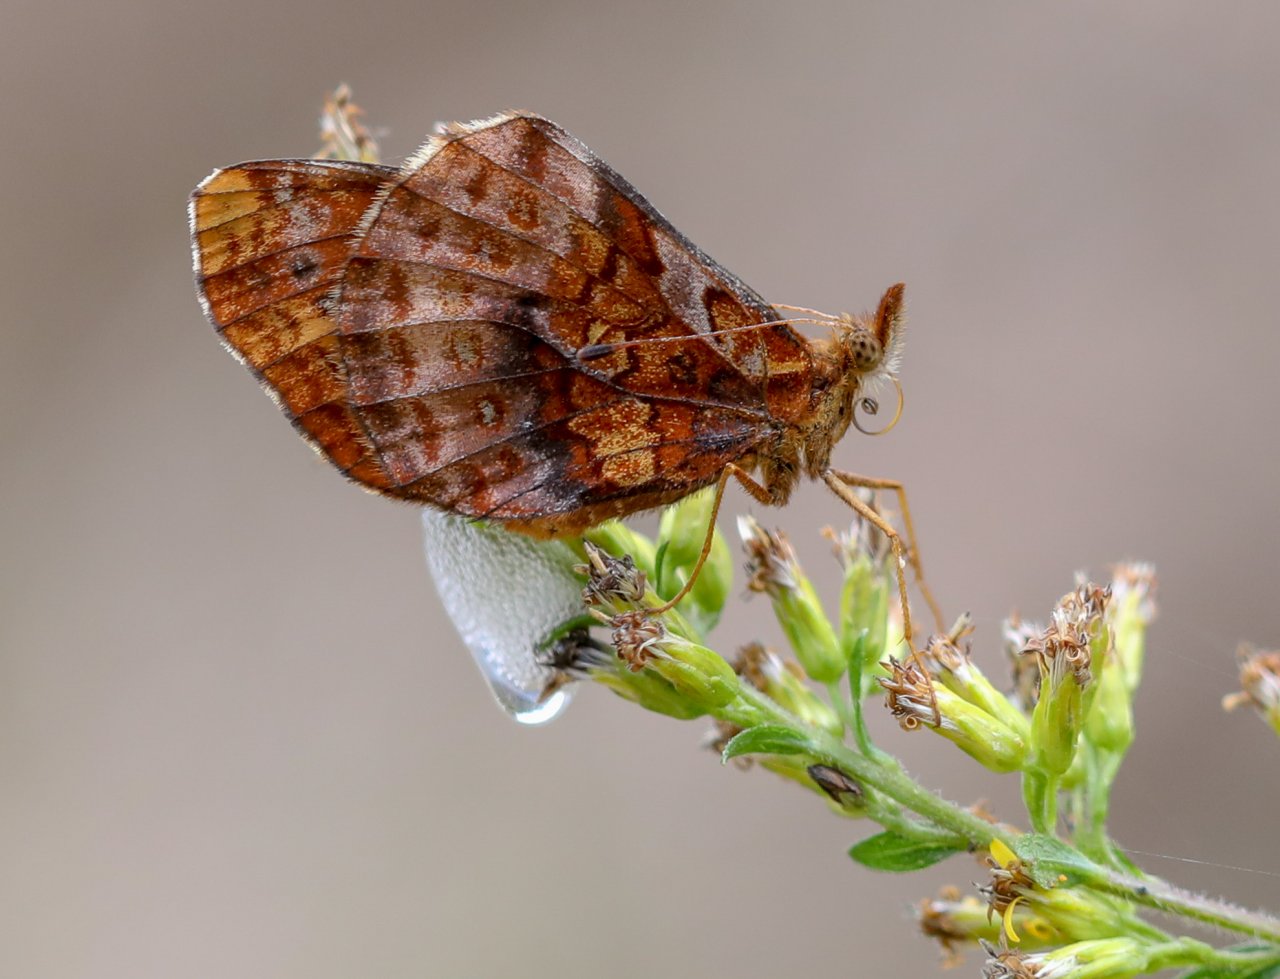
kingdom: Animalia
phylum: Arthropoda
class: Insecta
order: Lepidoptera
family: Nymphalidae
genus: Clossiana
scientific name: Clossiana toddi
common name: Meadow Fritillary
